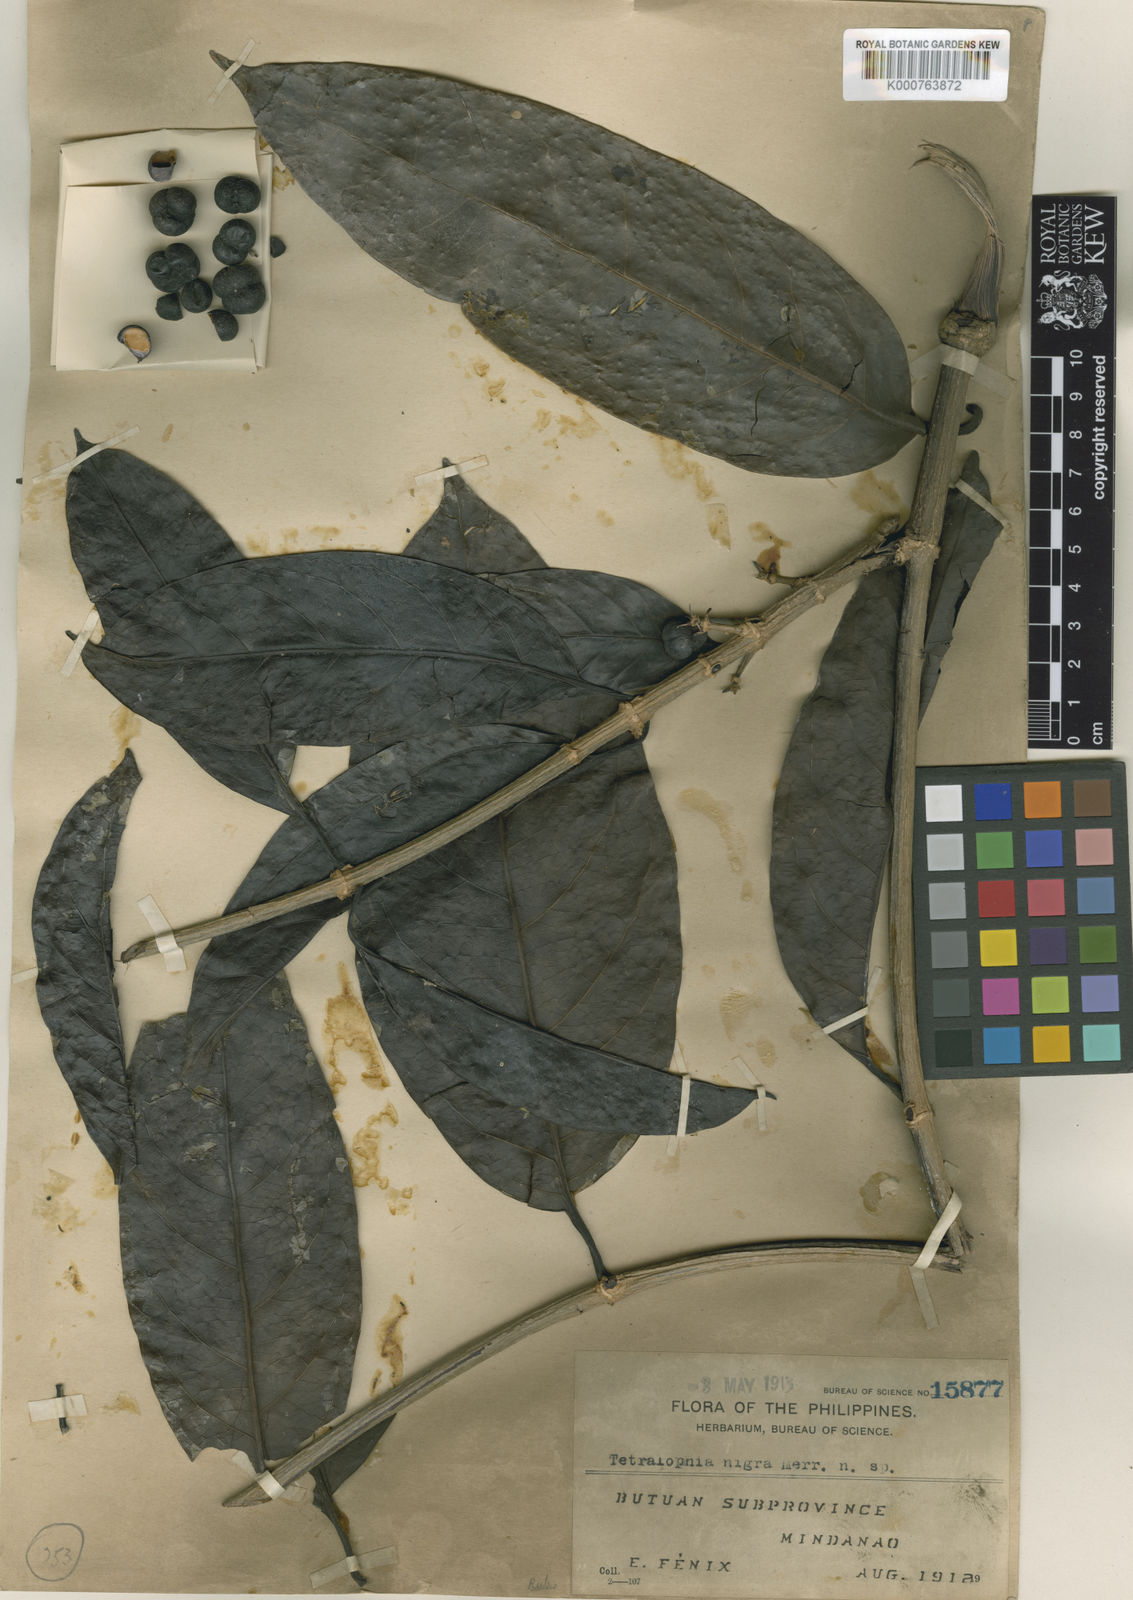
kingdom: Plantae
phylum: Tracheophyta
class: Magnoliopsida
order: Gentianales
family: Rubiaceae
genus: Gynochthodes
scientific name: Gynochthodes nigra
